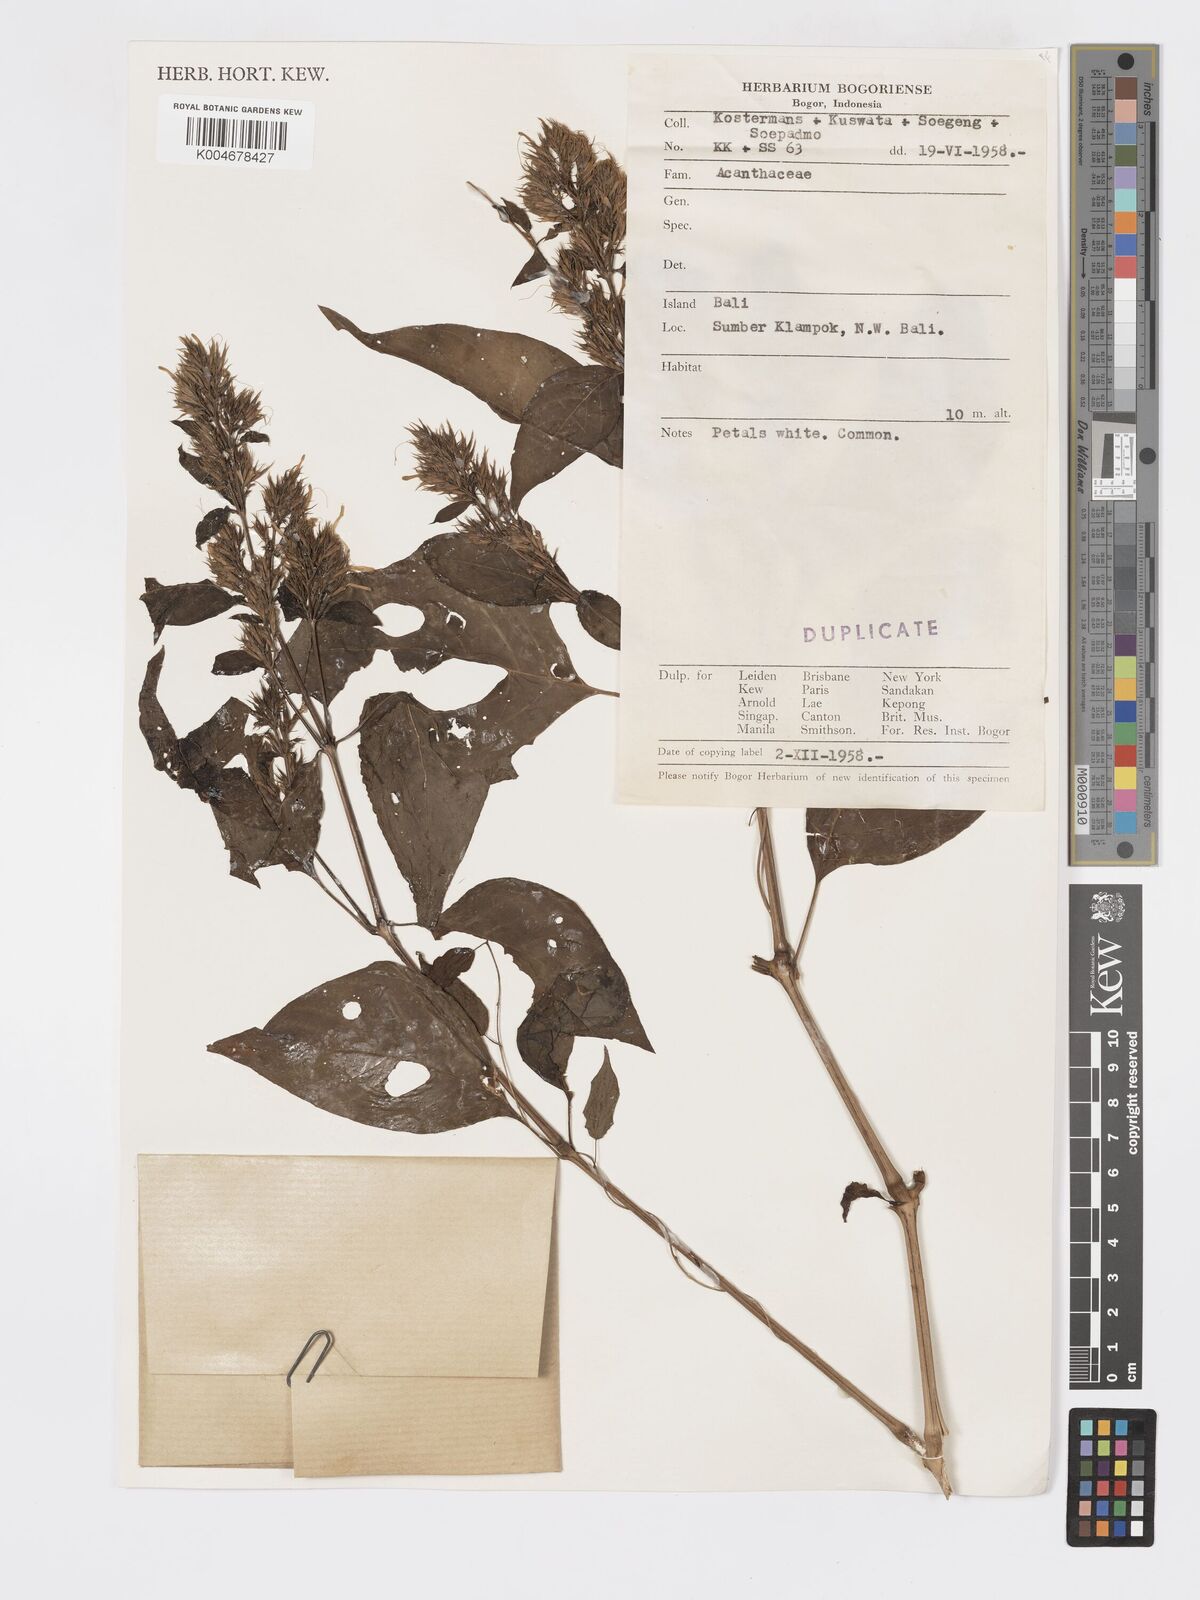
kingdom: Plantae
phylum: Tracheophyta
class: Magnoliopsida
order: Lamiales
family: Acanthaceae
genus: Hypoestes
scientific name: Hypoestes
